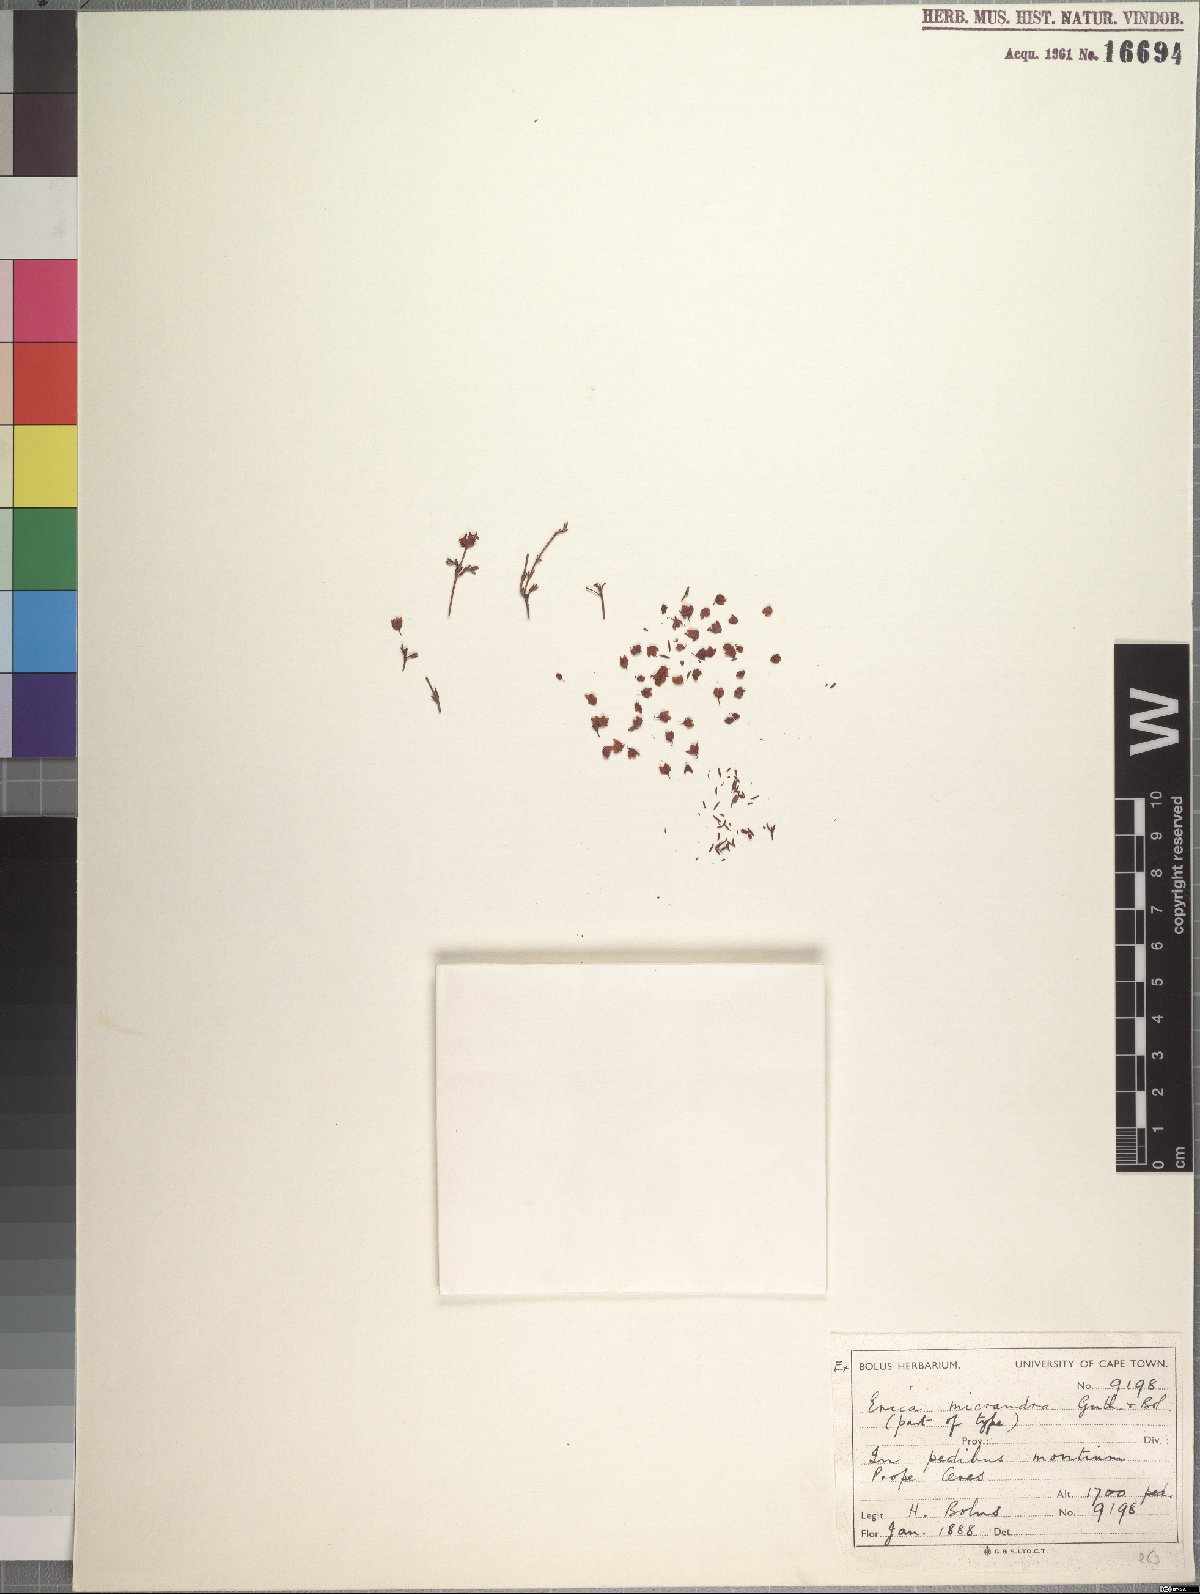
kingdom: Plantae
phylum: Tracheophyta
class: Magnoliopsida
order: Ericales
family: Ericaceae
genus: Erica
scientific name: Erica micrandra
